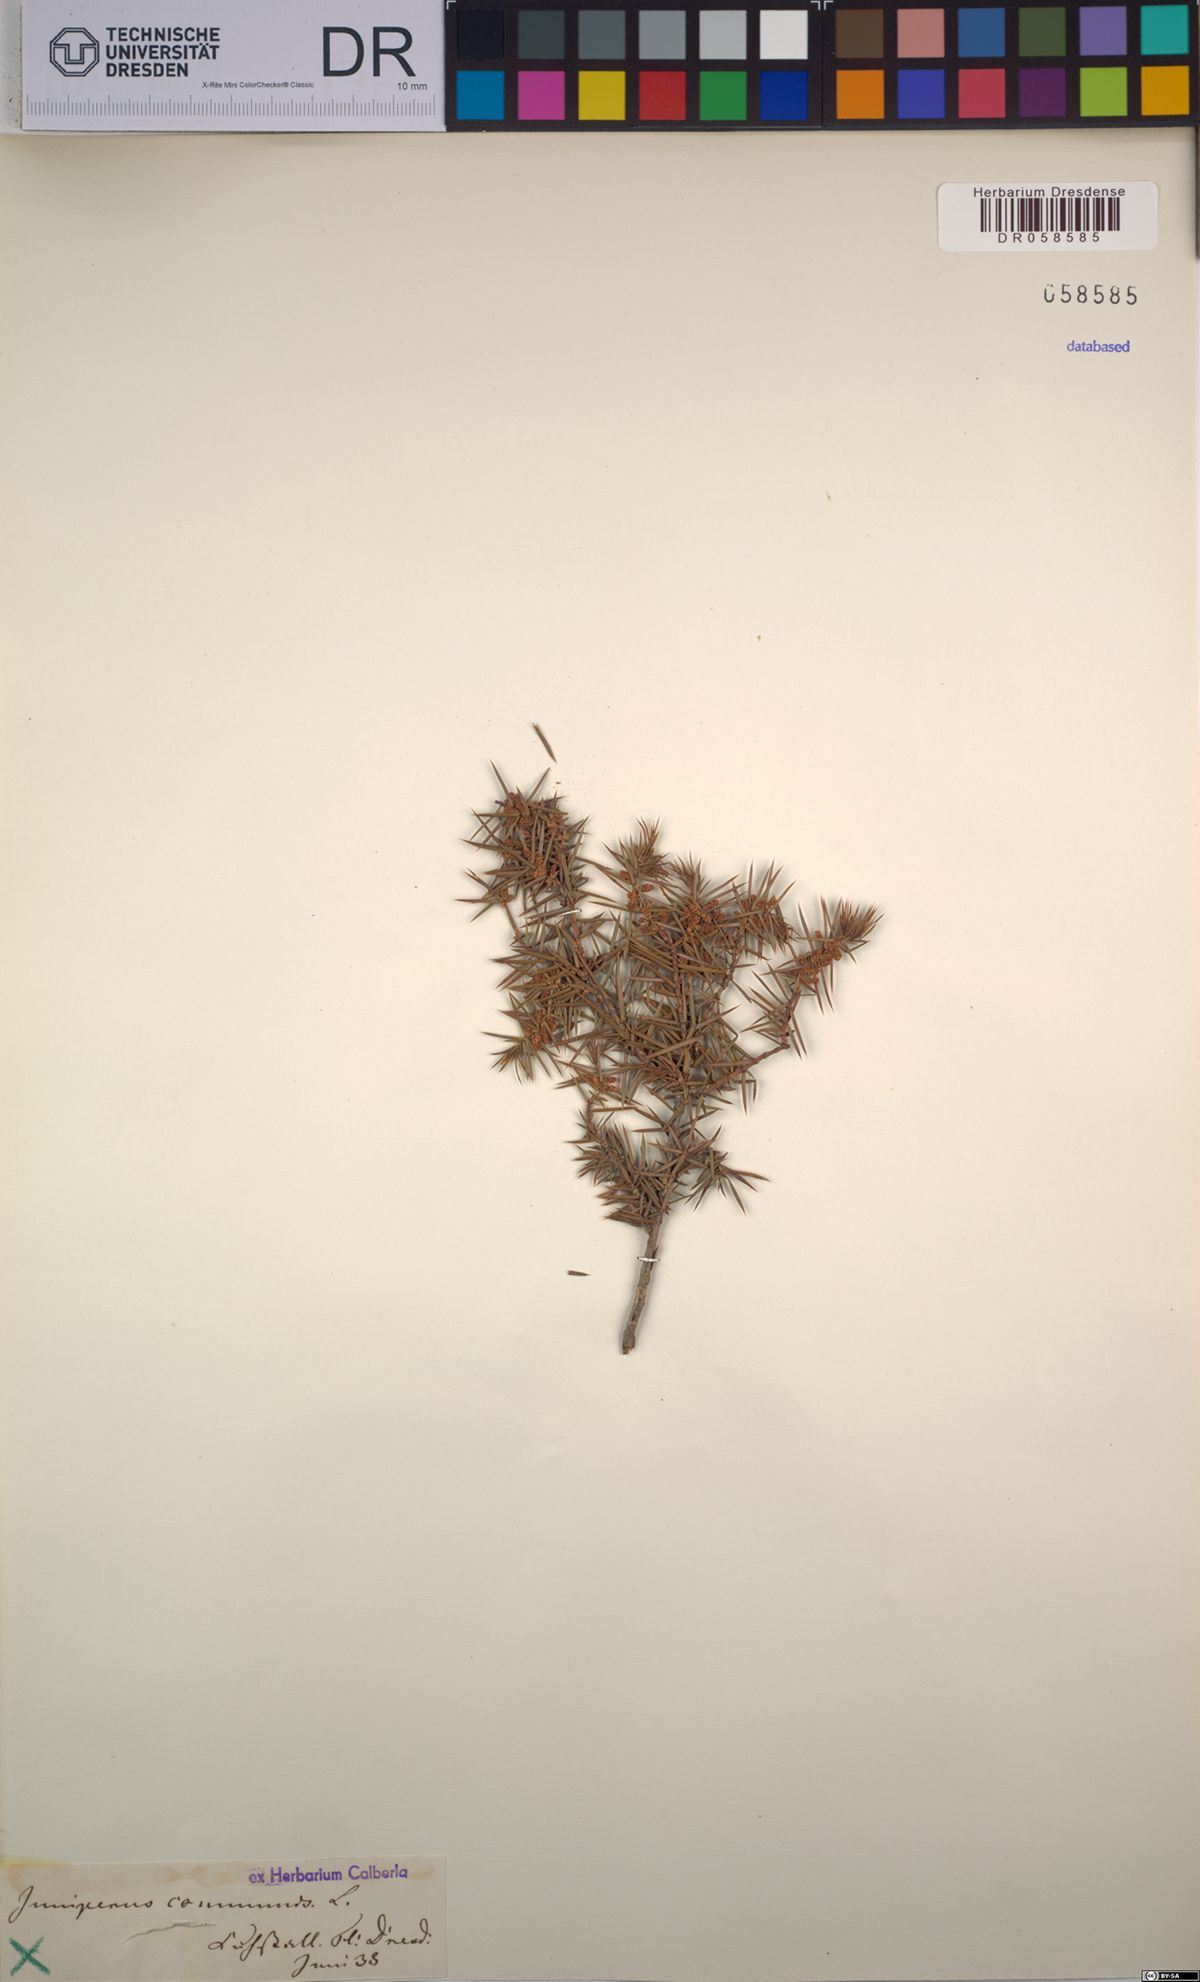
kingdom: Plantae
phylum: Tracheophyta
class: Pinopsida
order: Pinales
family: Cupressaceae
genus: Juniperus
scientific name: Juniperus communis
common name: Common juniper
